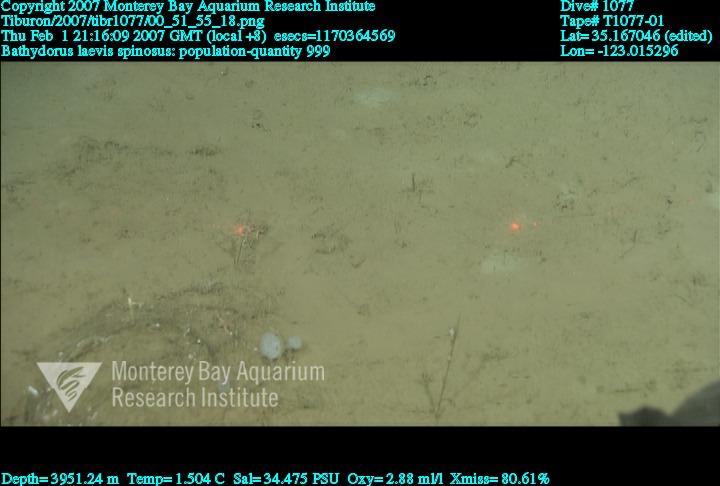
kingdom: Animalia
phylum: Porifera
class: Hexactinellida
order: Lyssacinosida
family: Rossellidae
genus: Bathydorus
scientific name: Bathydorus spinosus
